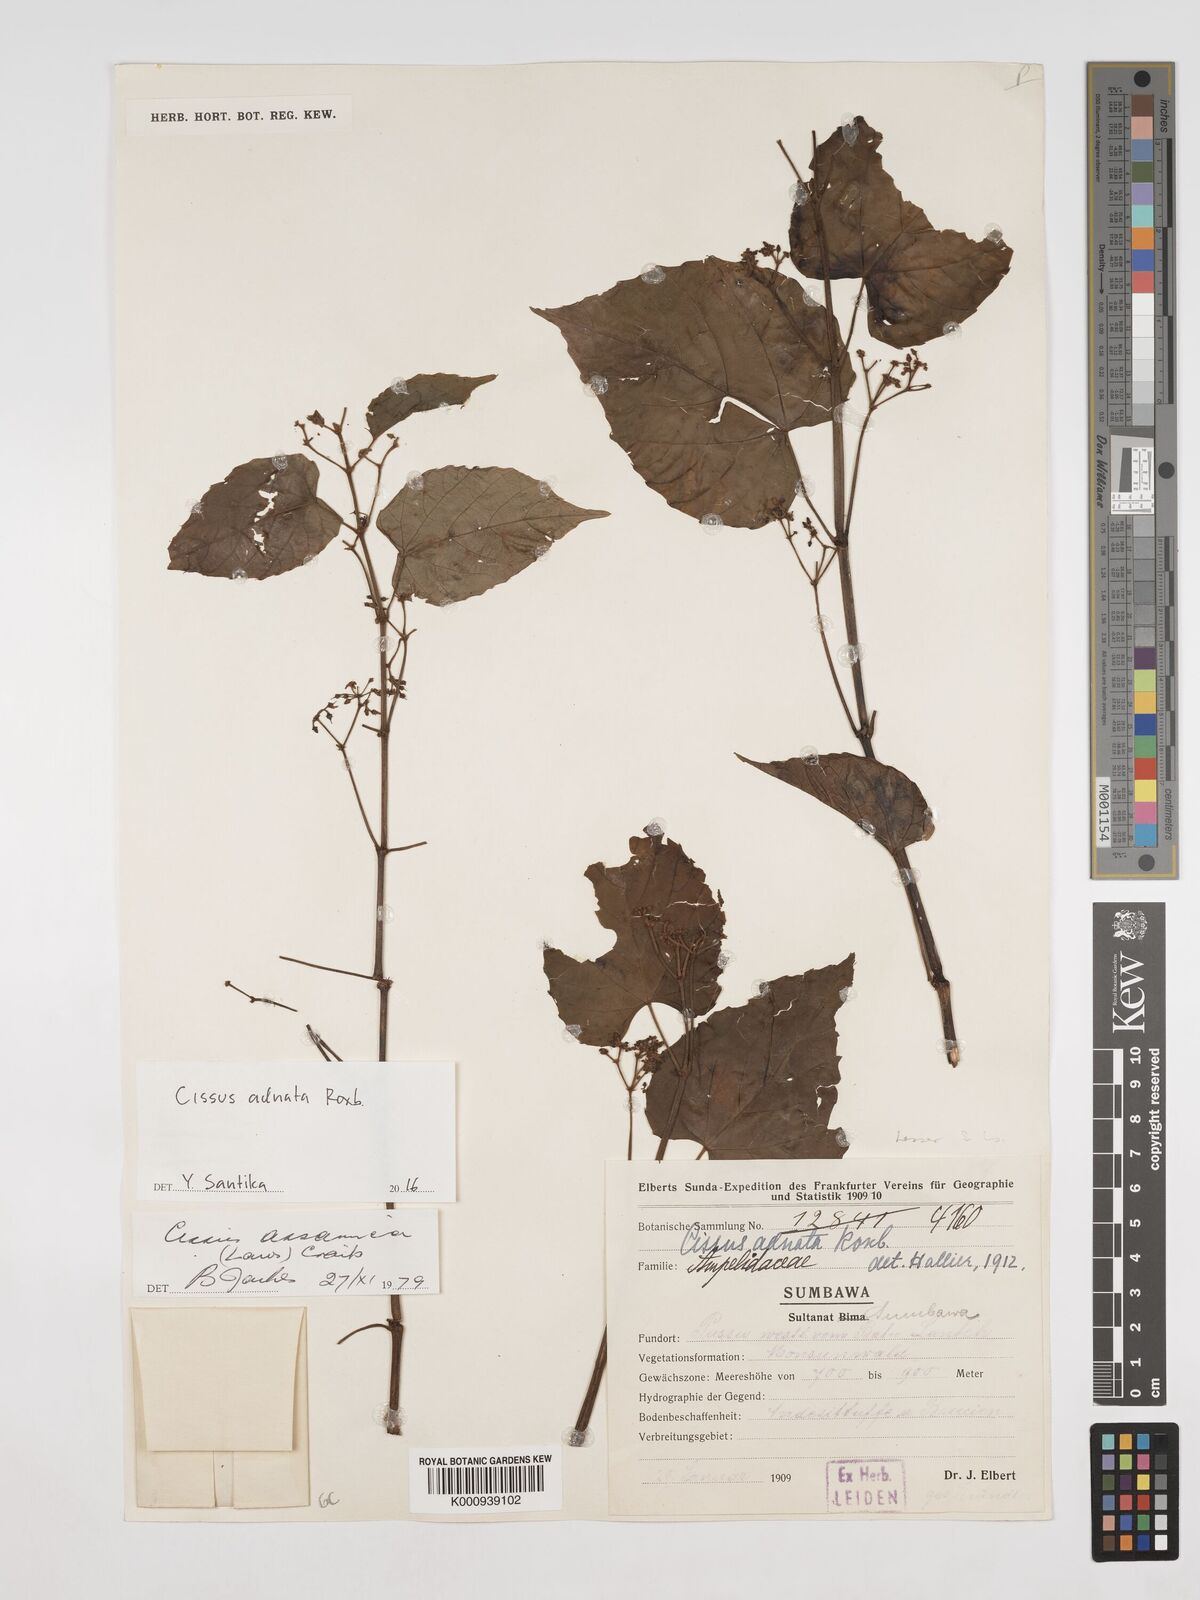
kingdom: Plantae
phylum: Tracheophyta
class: Magnoliopsida
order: Vitales
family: Vitaceae
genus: Cissus
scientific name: Cissus adnata
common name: Heart-leaf-grape
